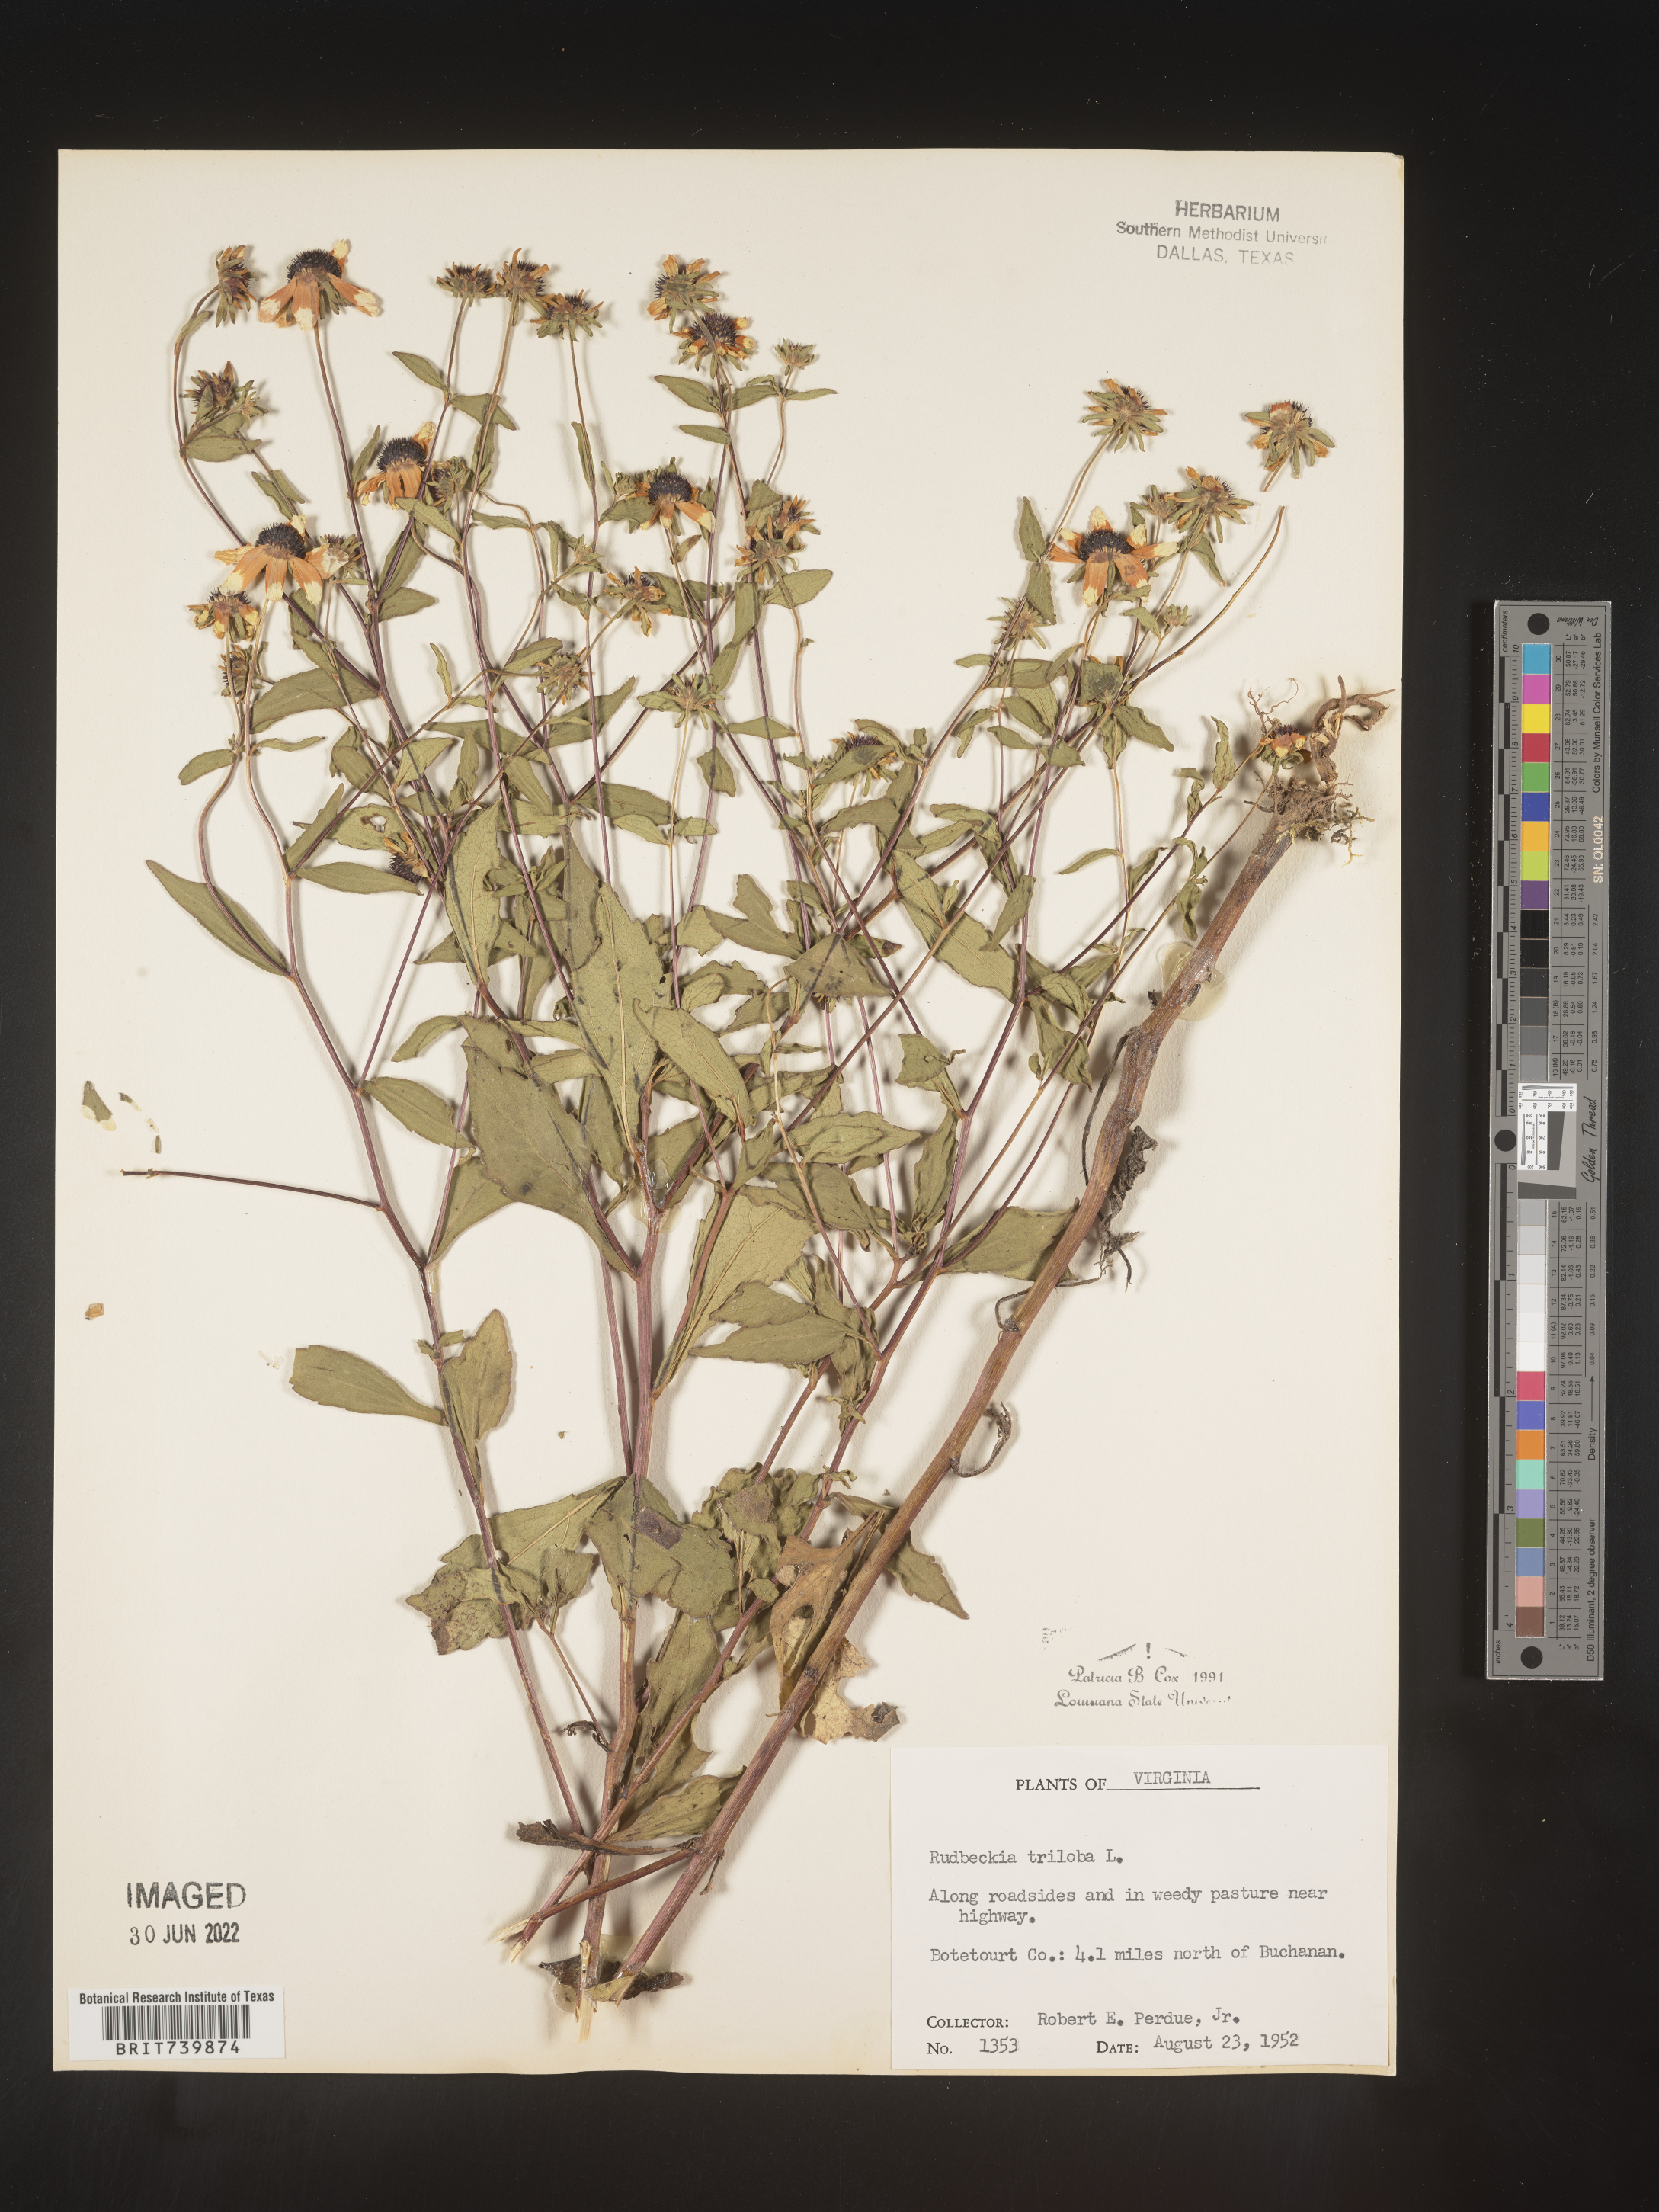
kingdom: Plantae
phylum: Tracheophyta
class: Magnoliopsida
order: Asterales
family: Asteraceae
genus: Rudbeckia
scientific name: Rudbeckia triloba
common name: Thin-leaved coneflower
